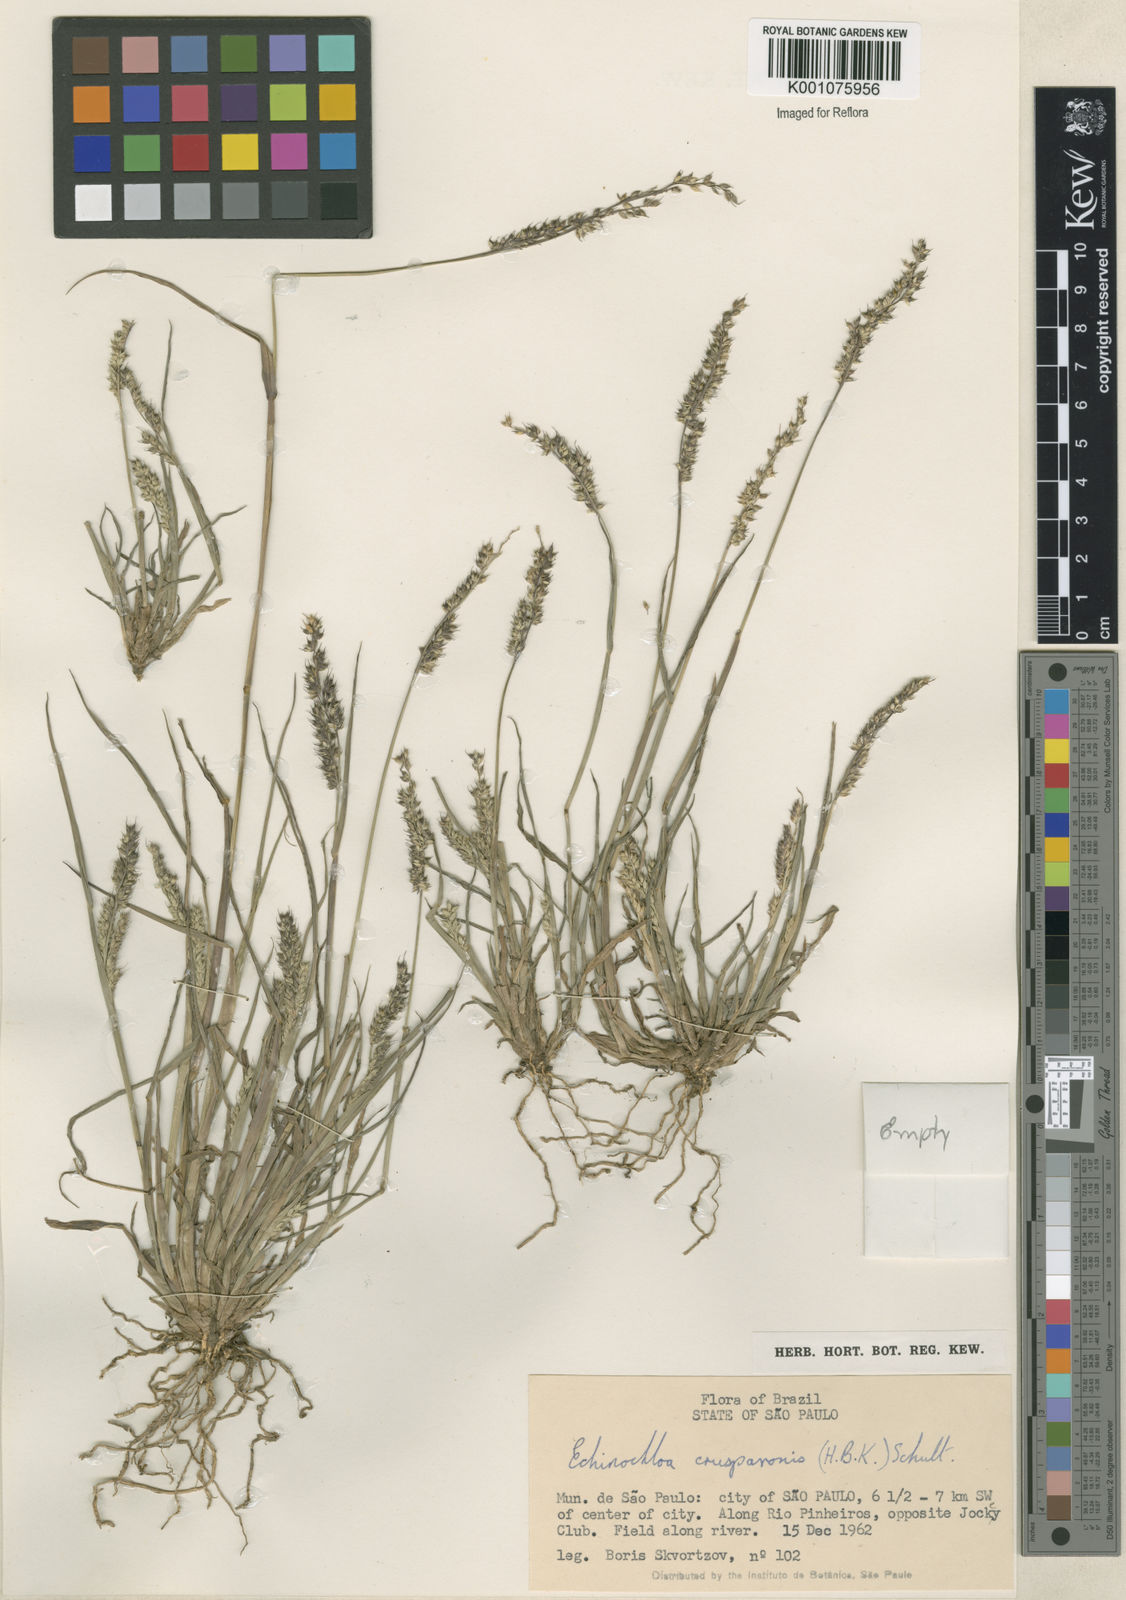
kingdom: Plantae
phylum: Tracheophyta
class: Liliopsida
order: Poales
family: Poaceae
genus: Echinochloa
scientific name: Echinochloa crus-pavonis
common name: Gulf cockspur grass
